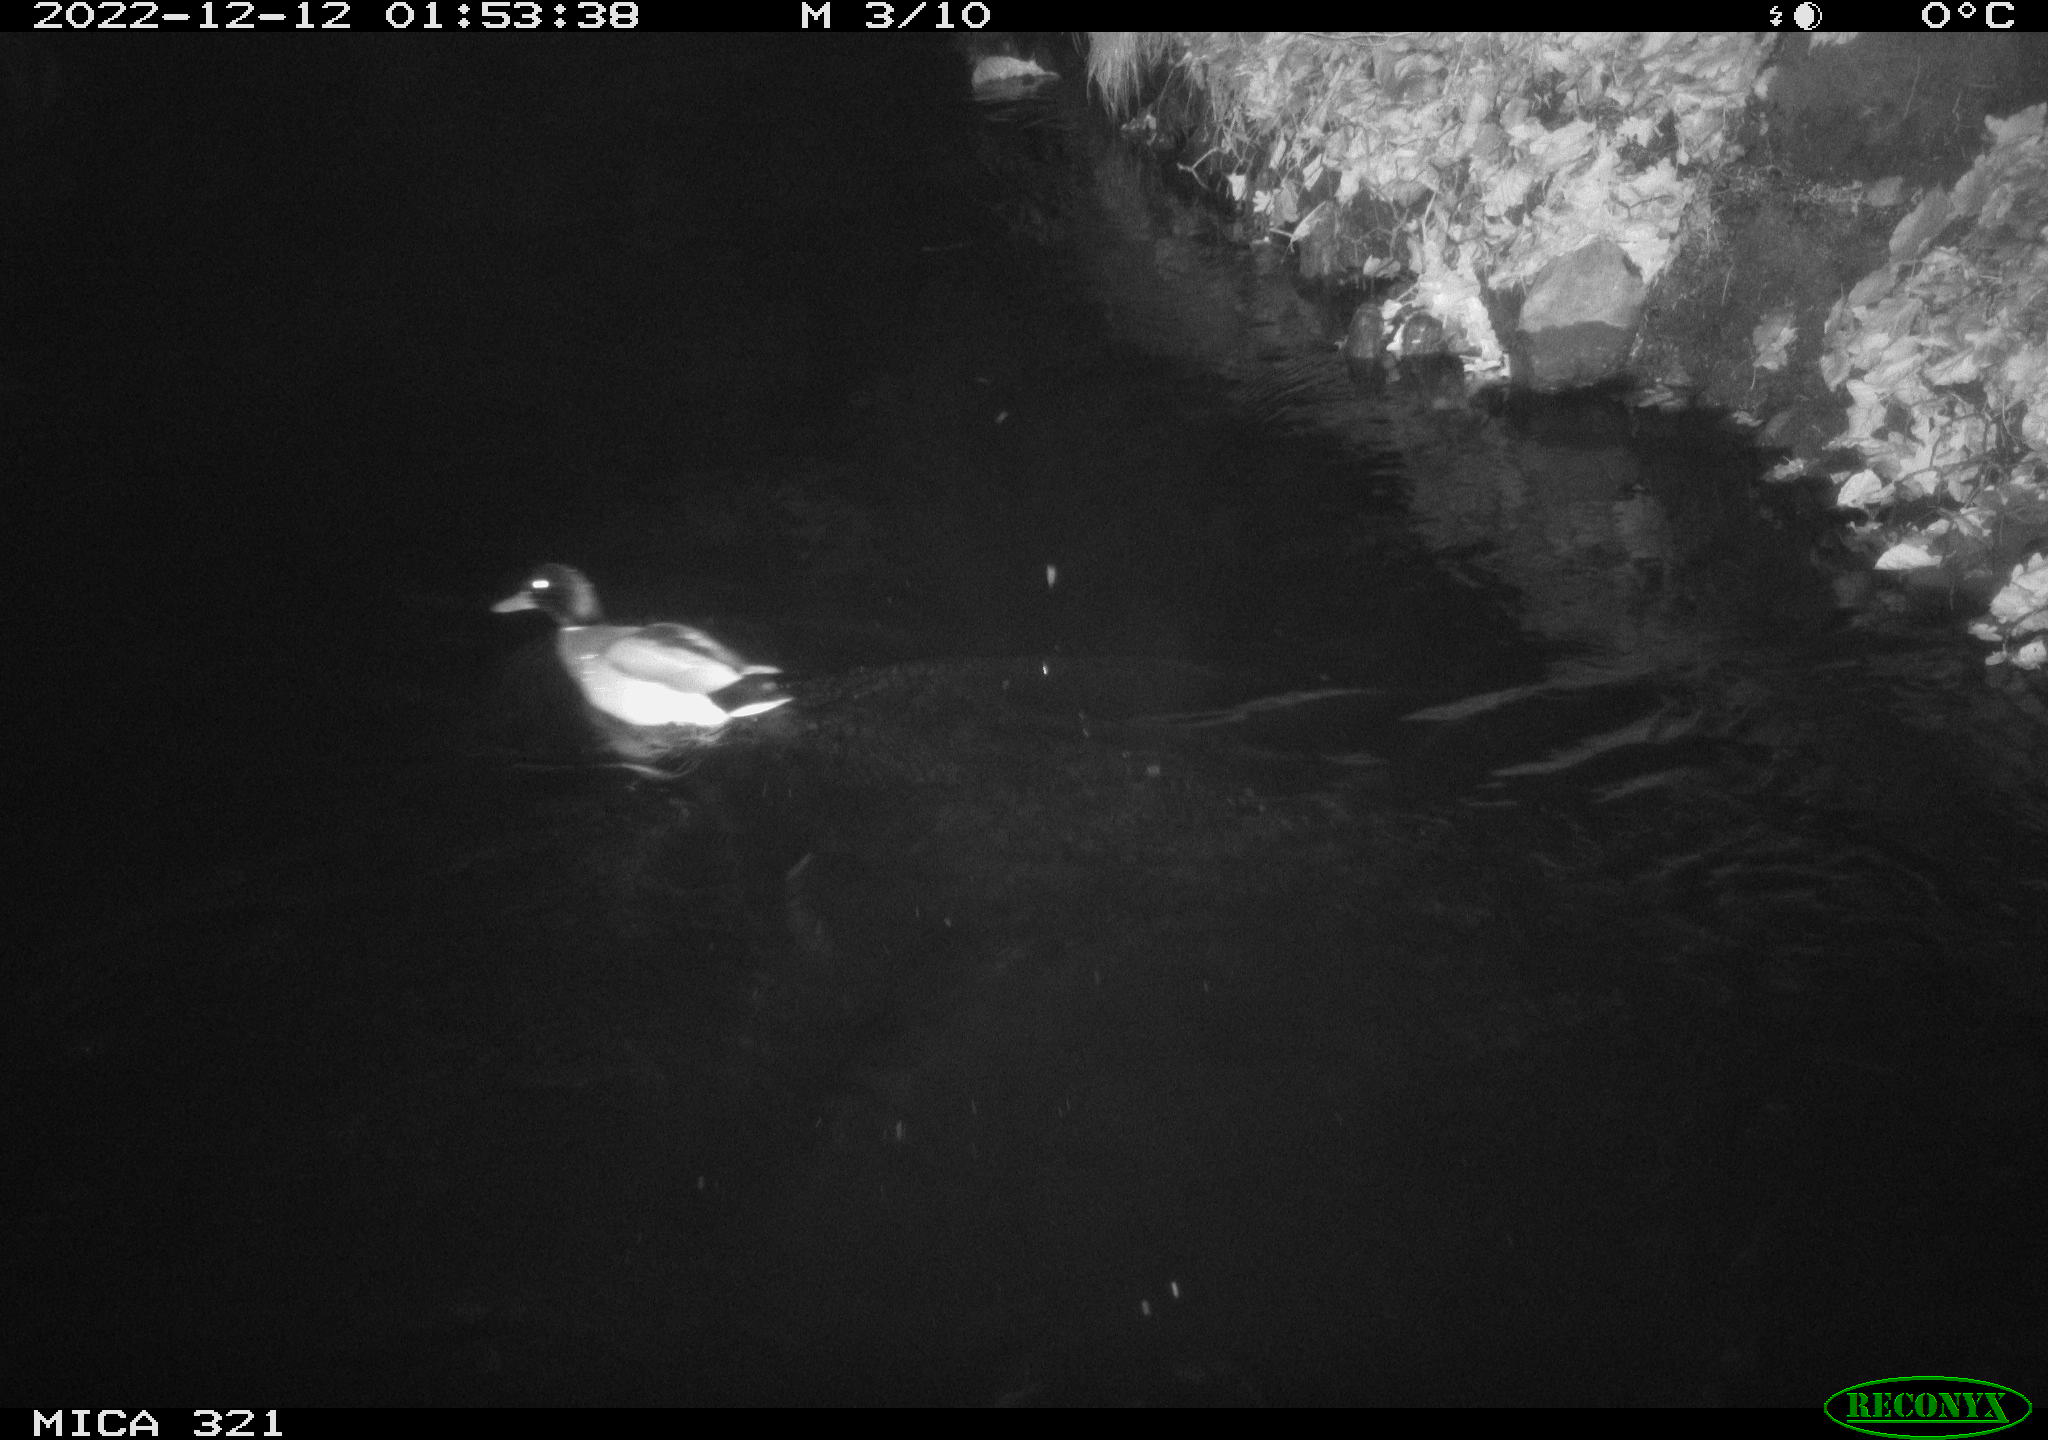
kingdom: Animalia
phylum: Chordata
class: Aves
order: Anseriformes
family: Anatidae
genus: Anas
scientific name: Anas
